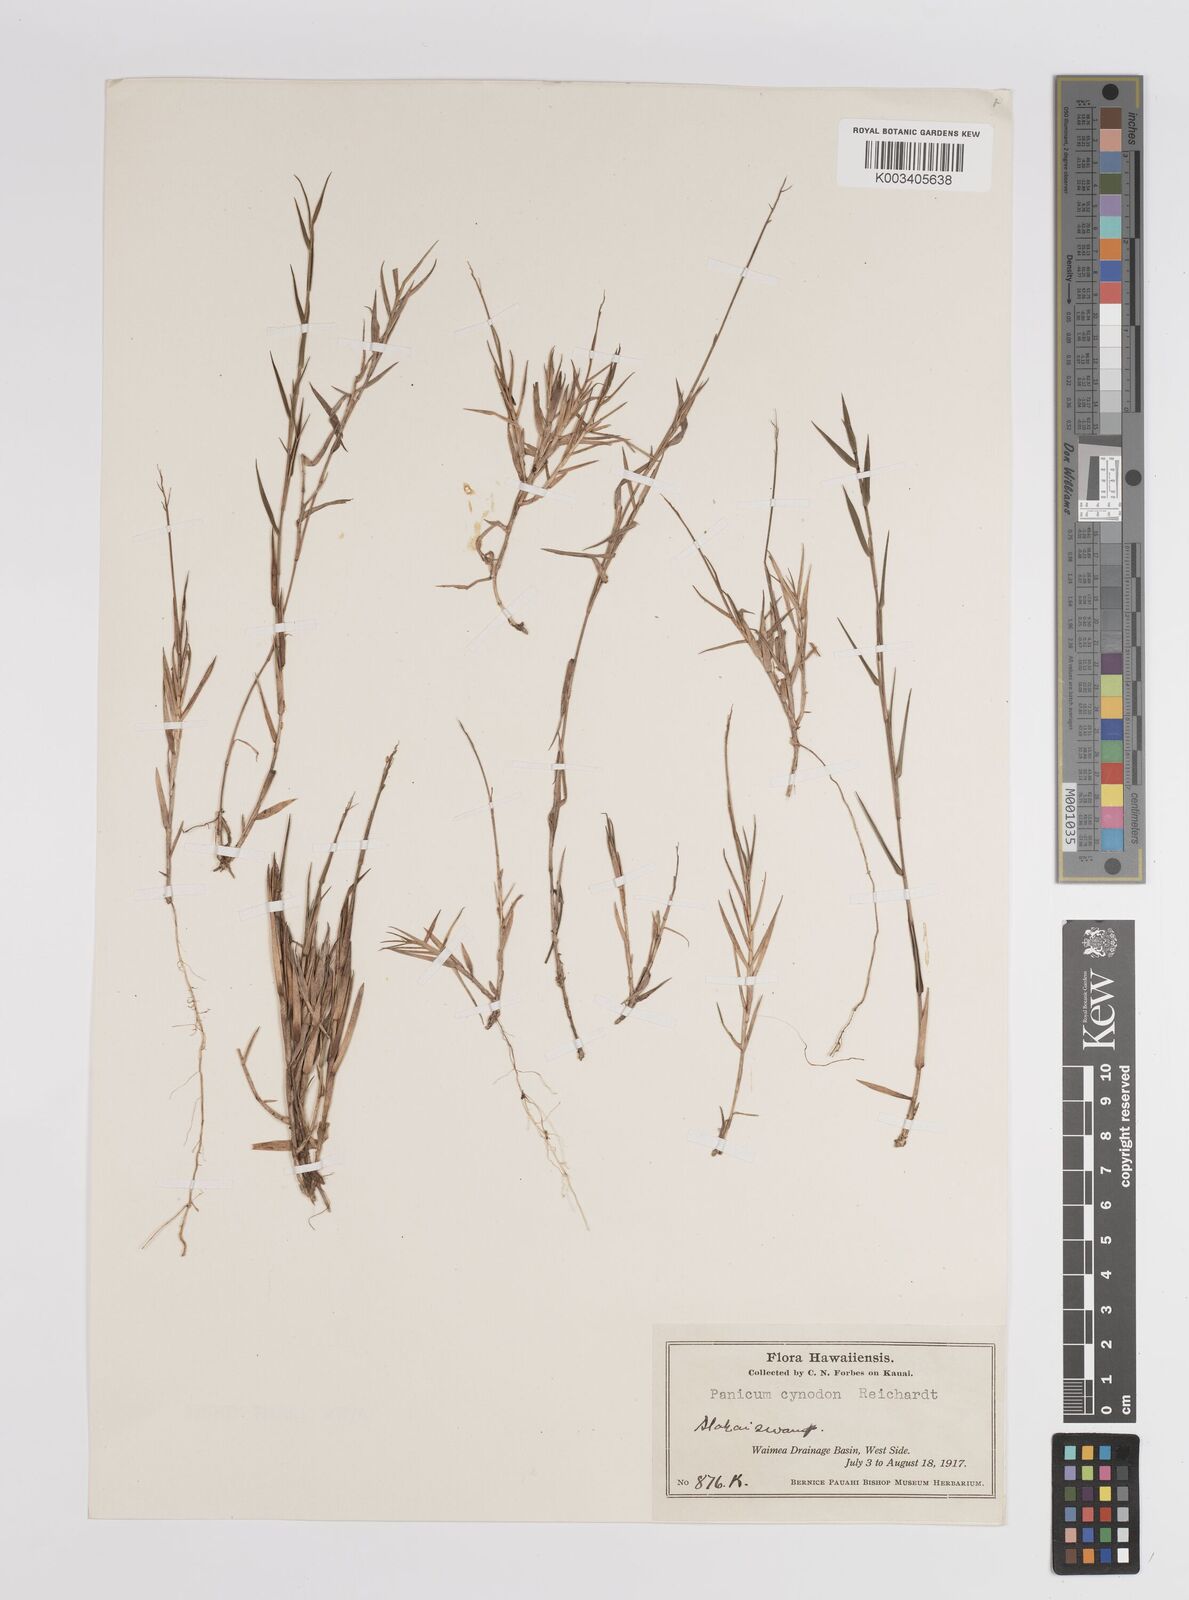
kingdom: Plantae
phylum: Tracheophyta
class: Liliopsida
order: Poales
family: Poaceae
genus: Dichanthelium
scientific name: Dichanthelium cynodon
